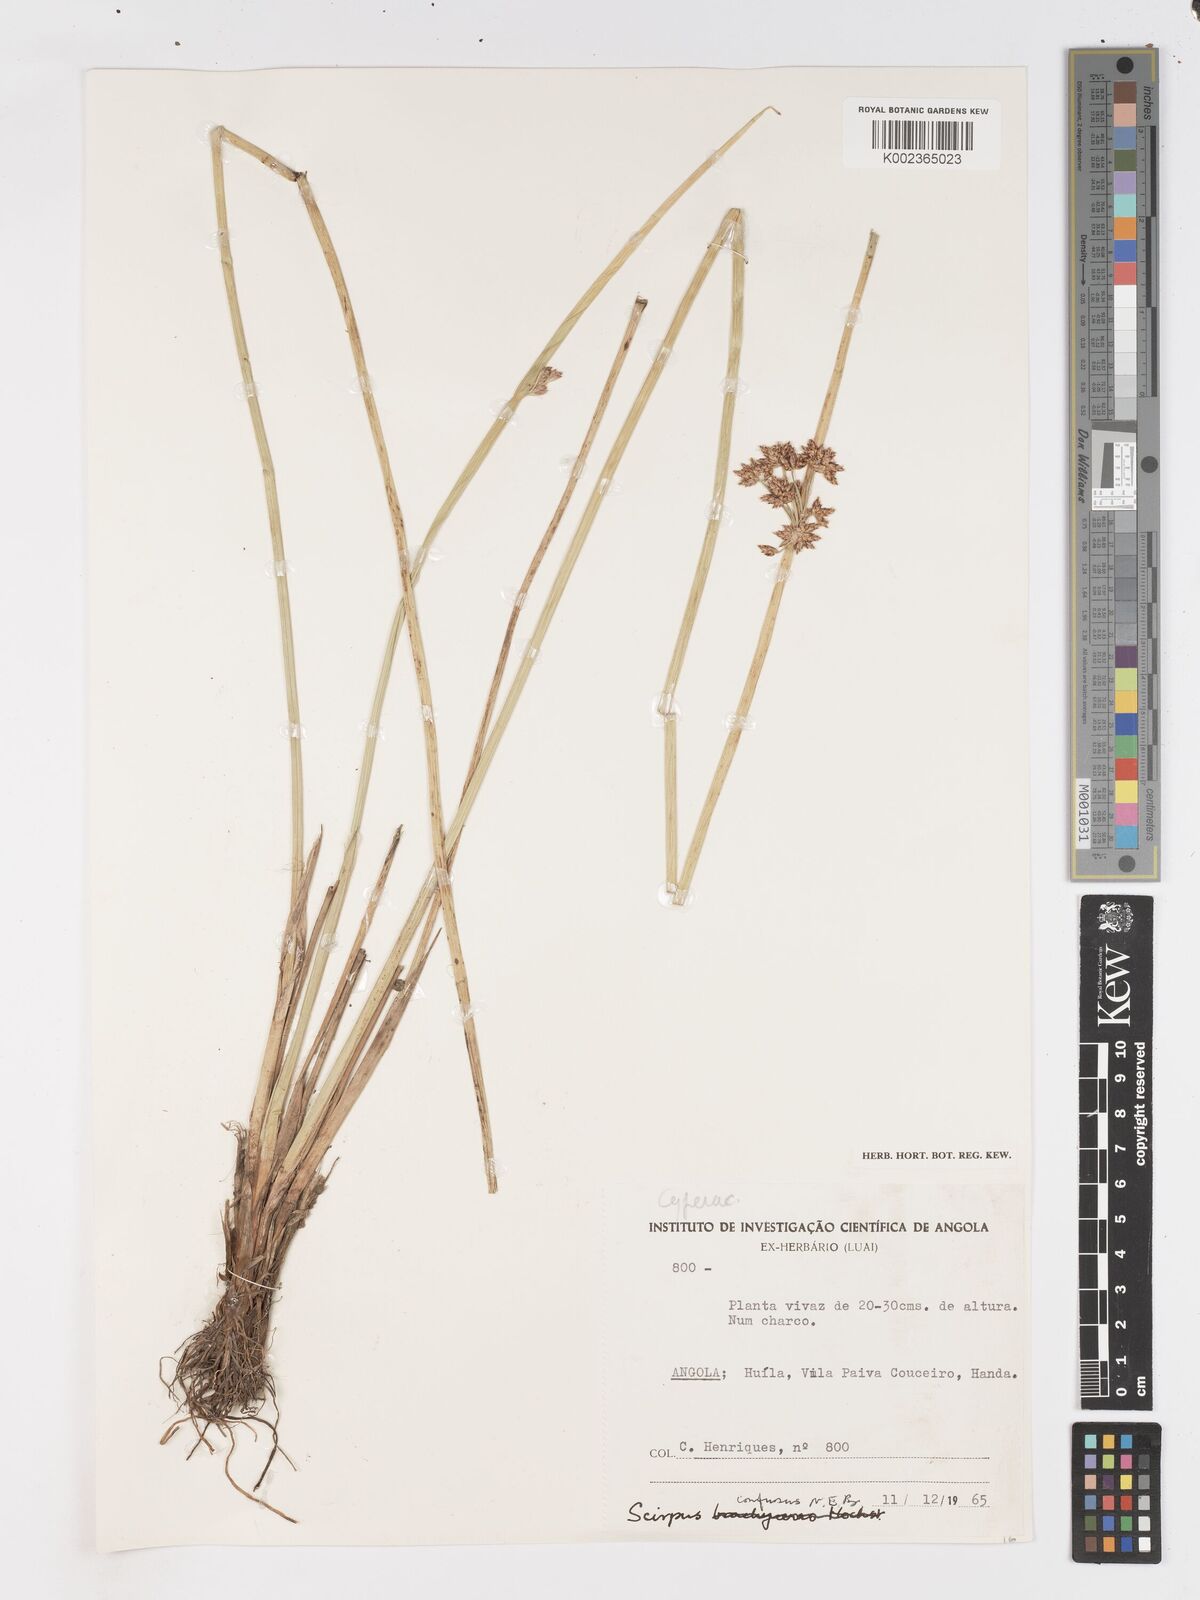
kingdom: Plantae
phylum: Tracheophyta
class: Liliopsida
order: Poales
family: Cyperaceae
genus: Schoenoplectiella
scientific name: Schoenoplectiella confusa
